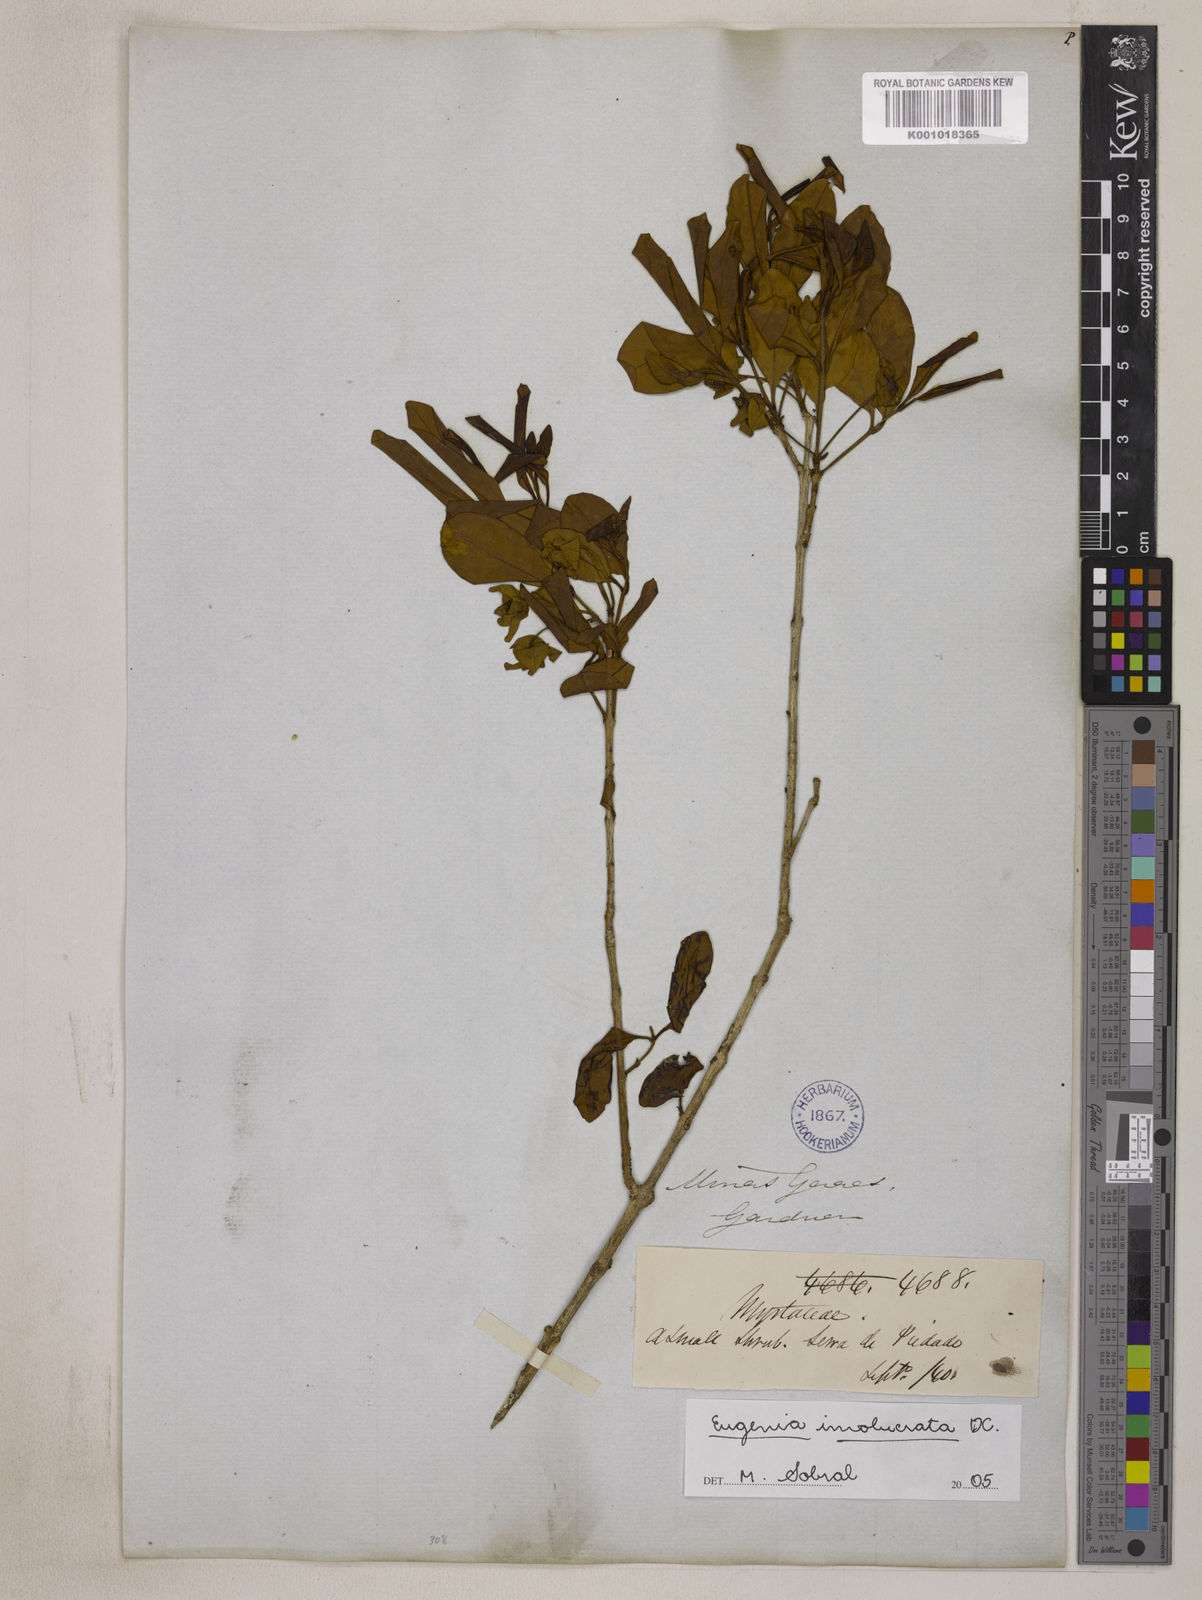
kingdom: Plantae
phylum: Tracheophyta
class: Magnoliopsida
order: Myrtales
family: Myrtaceae
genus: Eugenia
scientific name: Eugenia involucrata
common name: Cherry-of-the-rio grande
